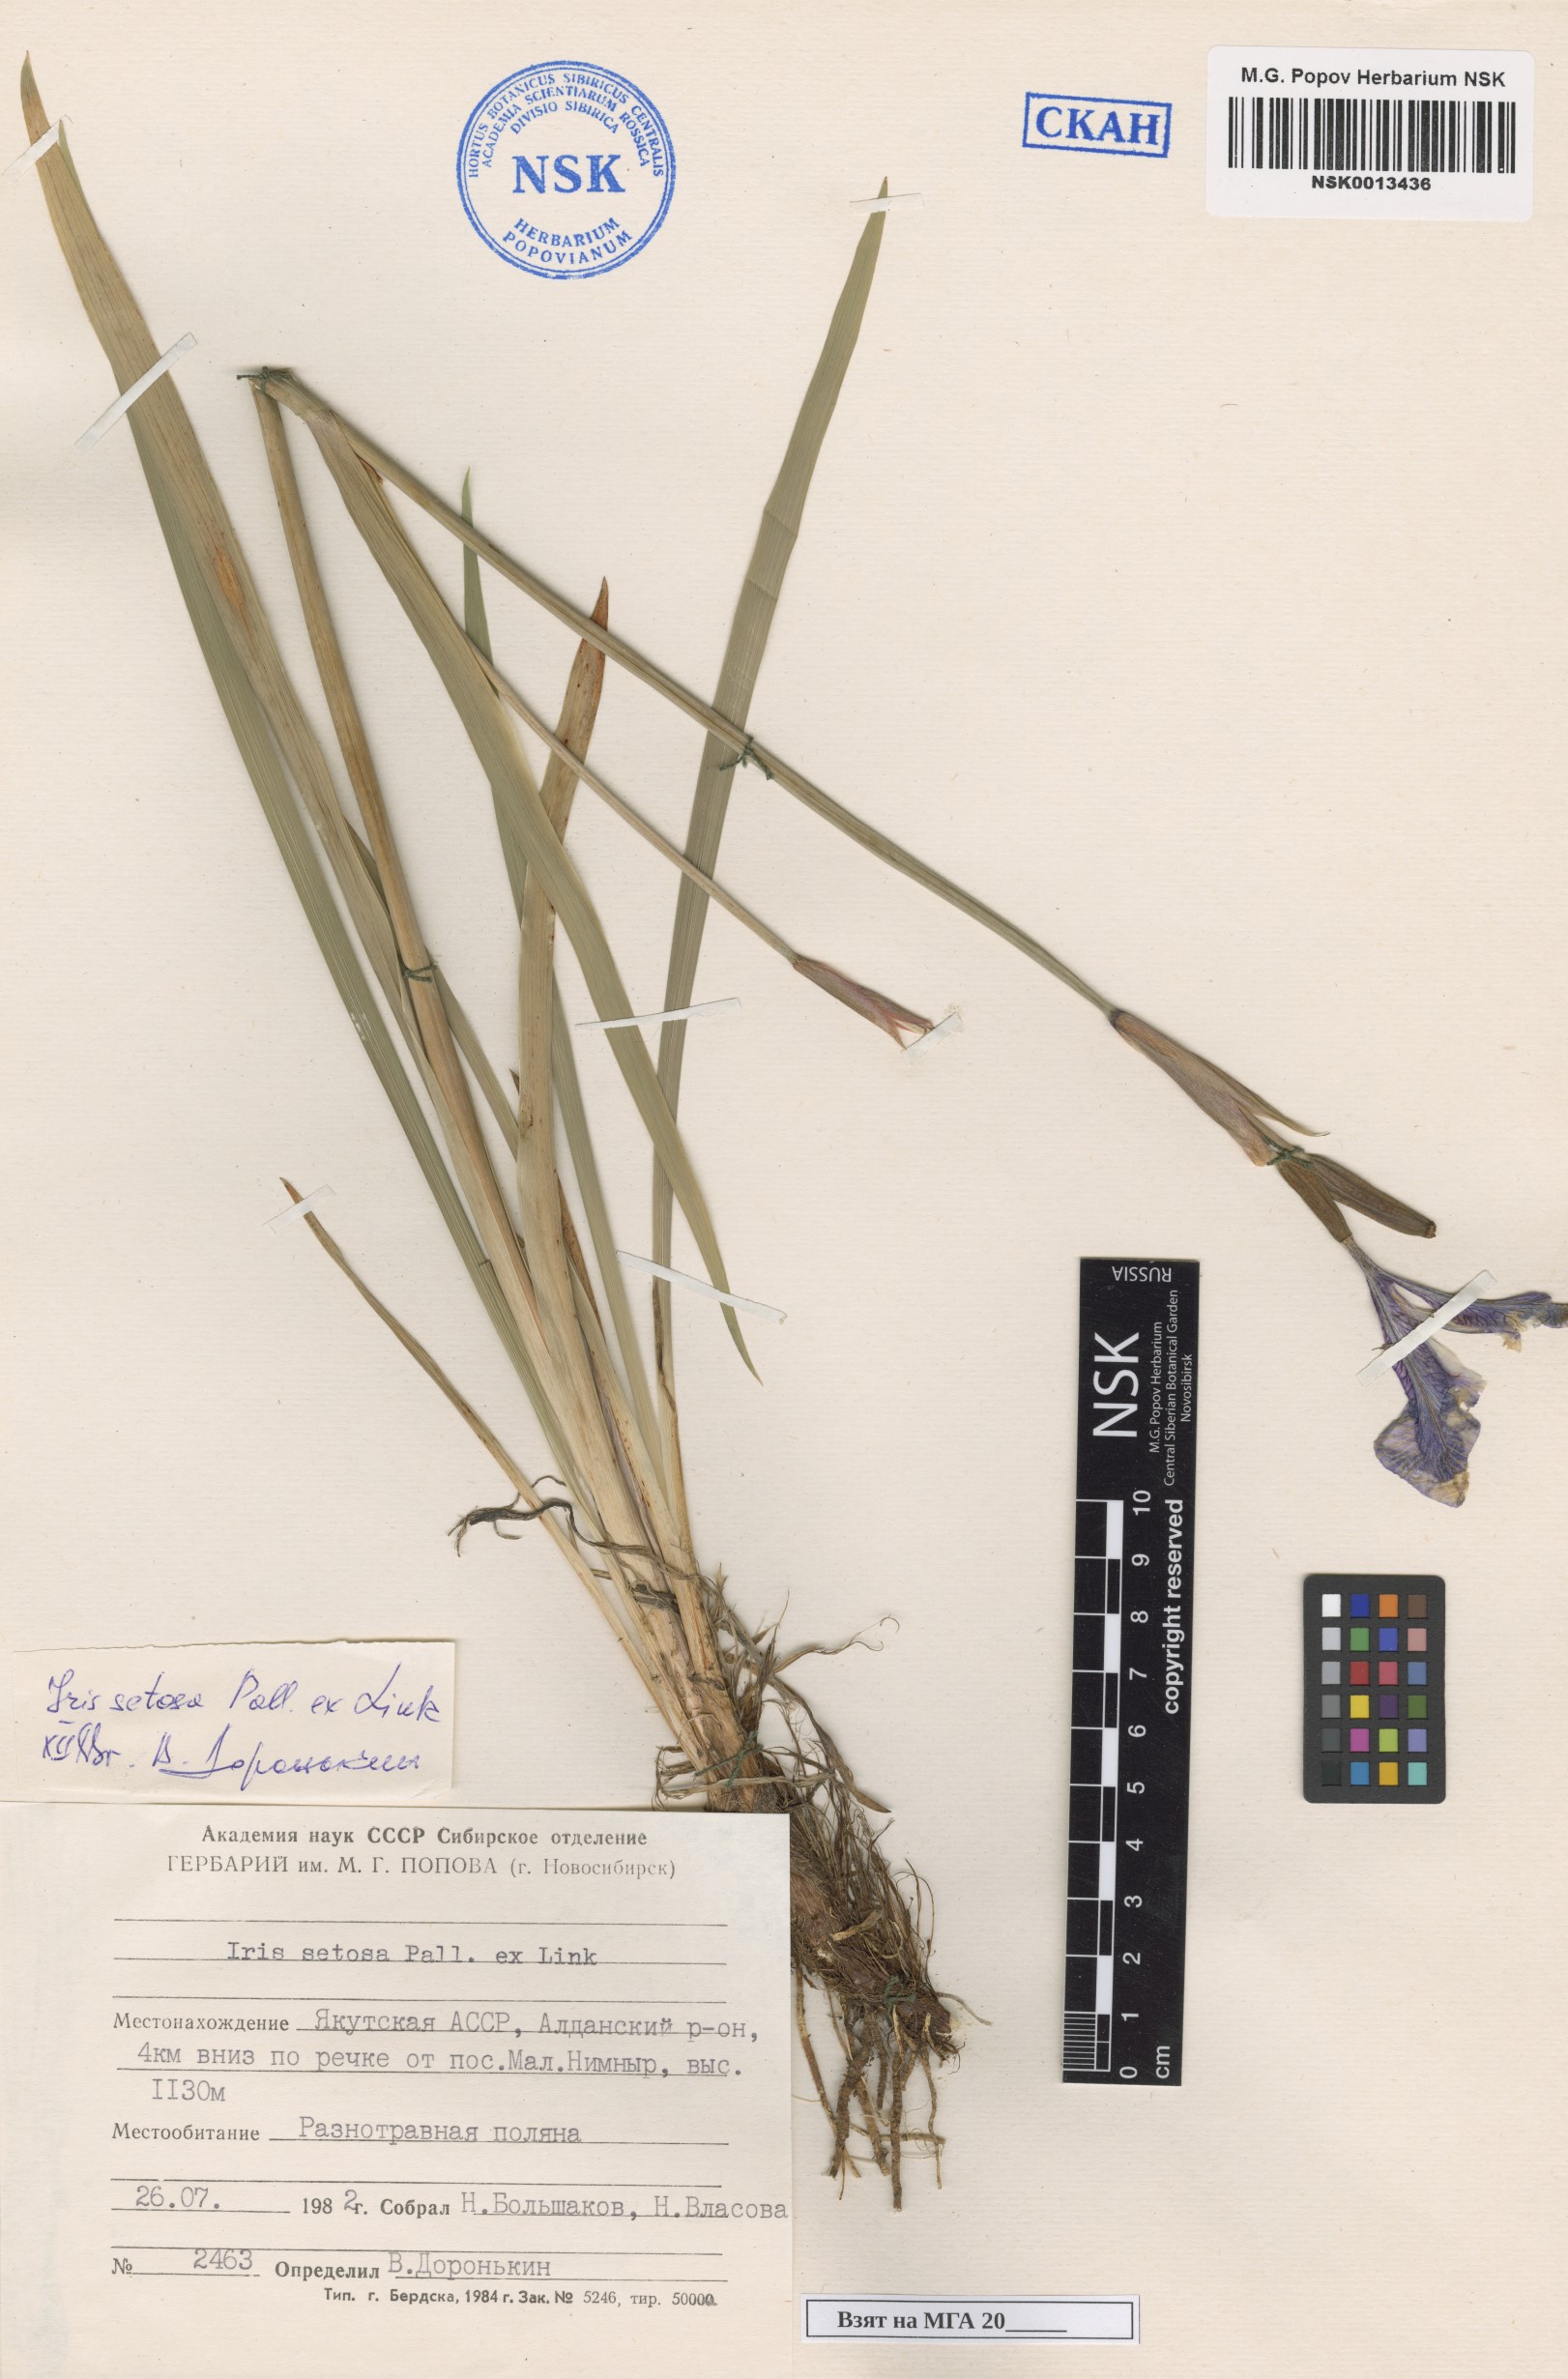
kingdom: Plantae
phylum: Tracheophyta
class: Liliopsida
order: Asparagales
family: Iridaceae
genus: Iris
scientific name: Iris setosa
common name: Arctic blue flag
